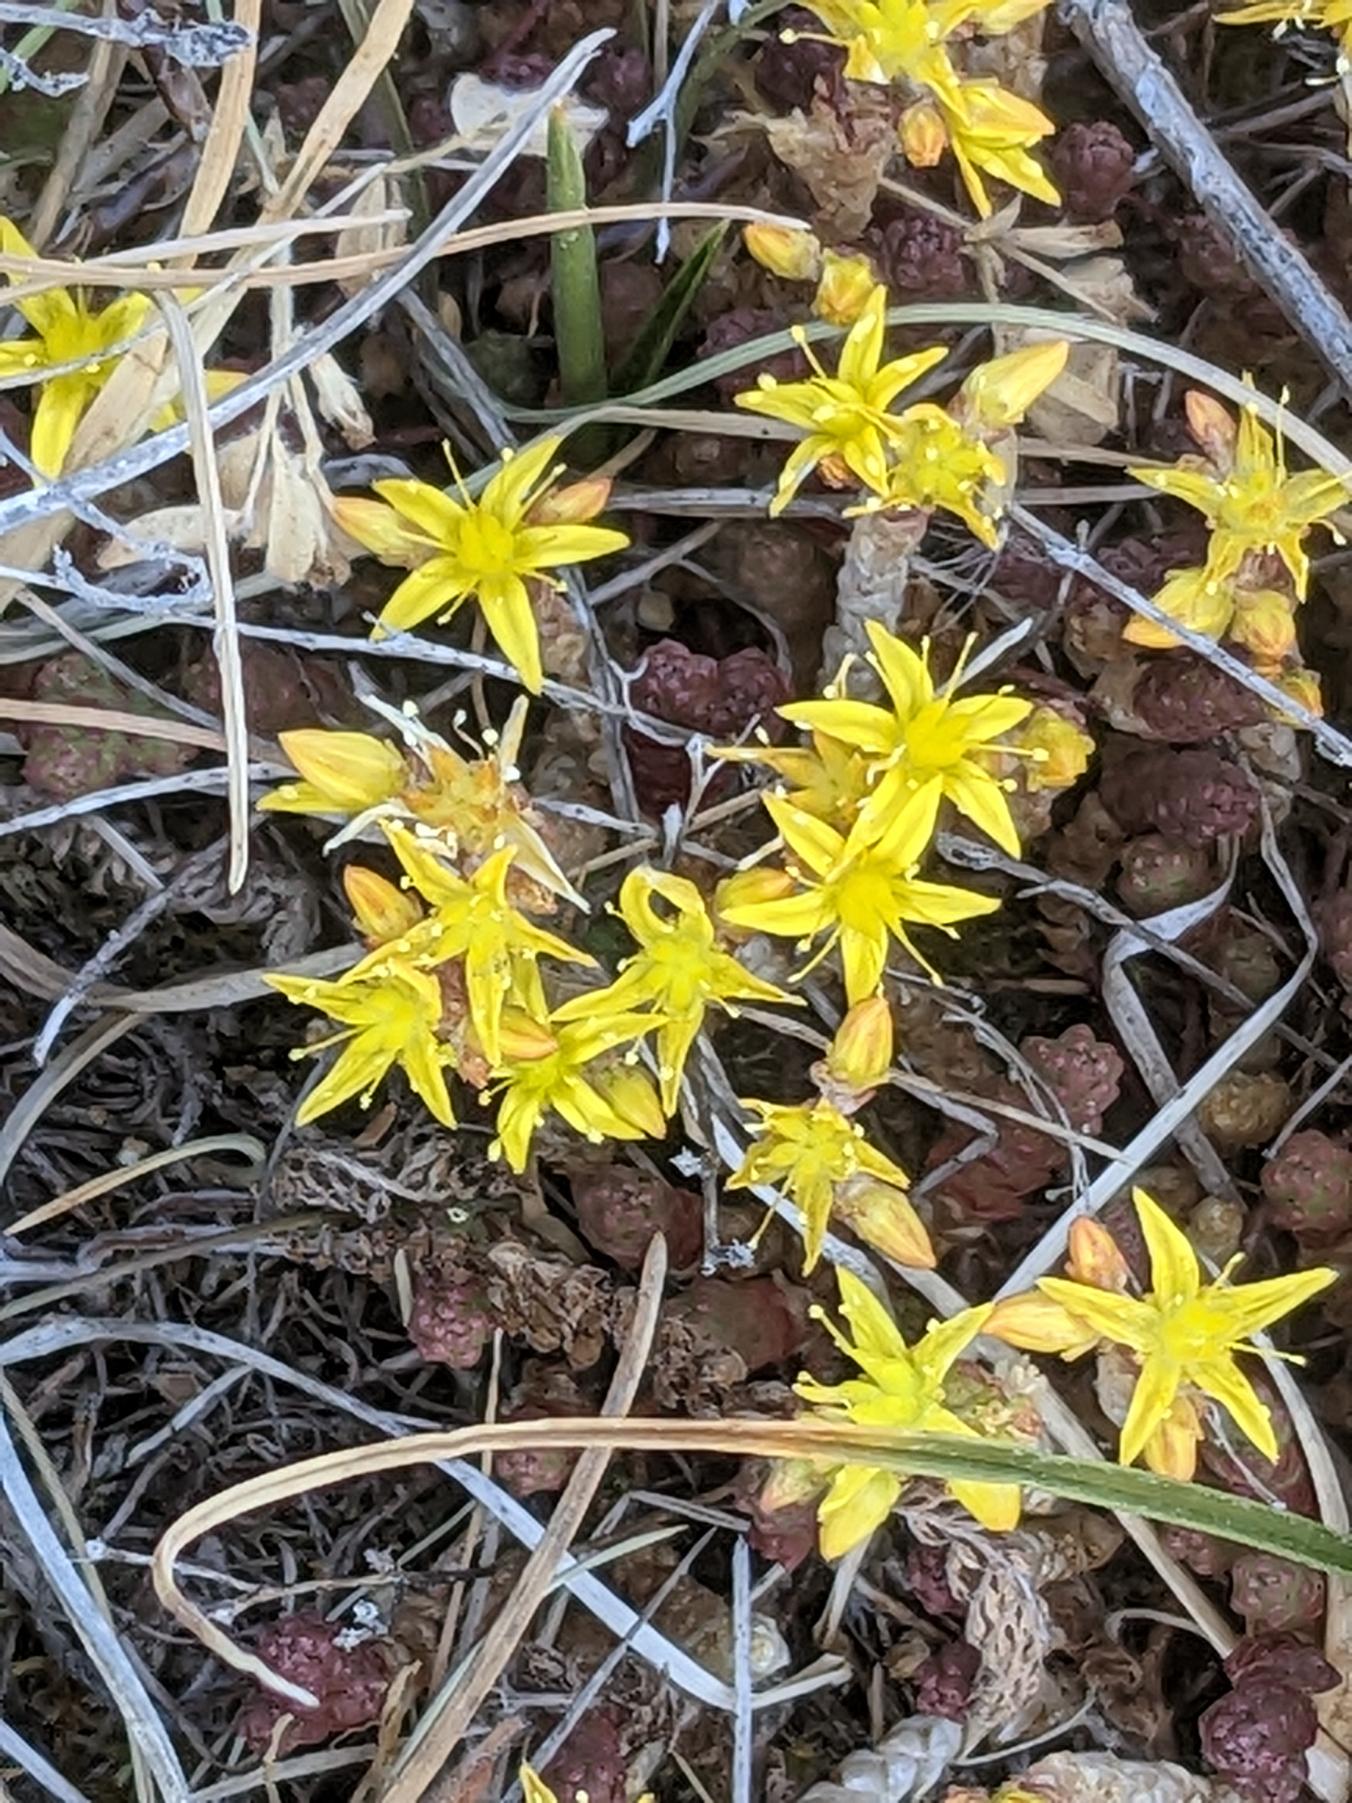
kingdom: Plantae
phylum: Tracheophyta
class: Magnoliopsida
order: Saxifragales
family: Crassulaceae
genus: Sedum
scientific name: Sedum acre
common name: Bidende stenurt
